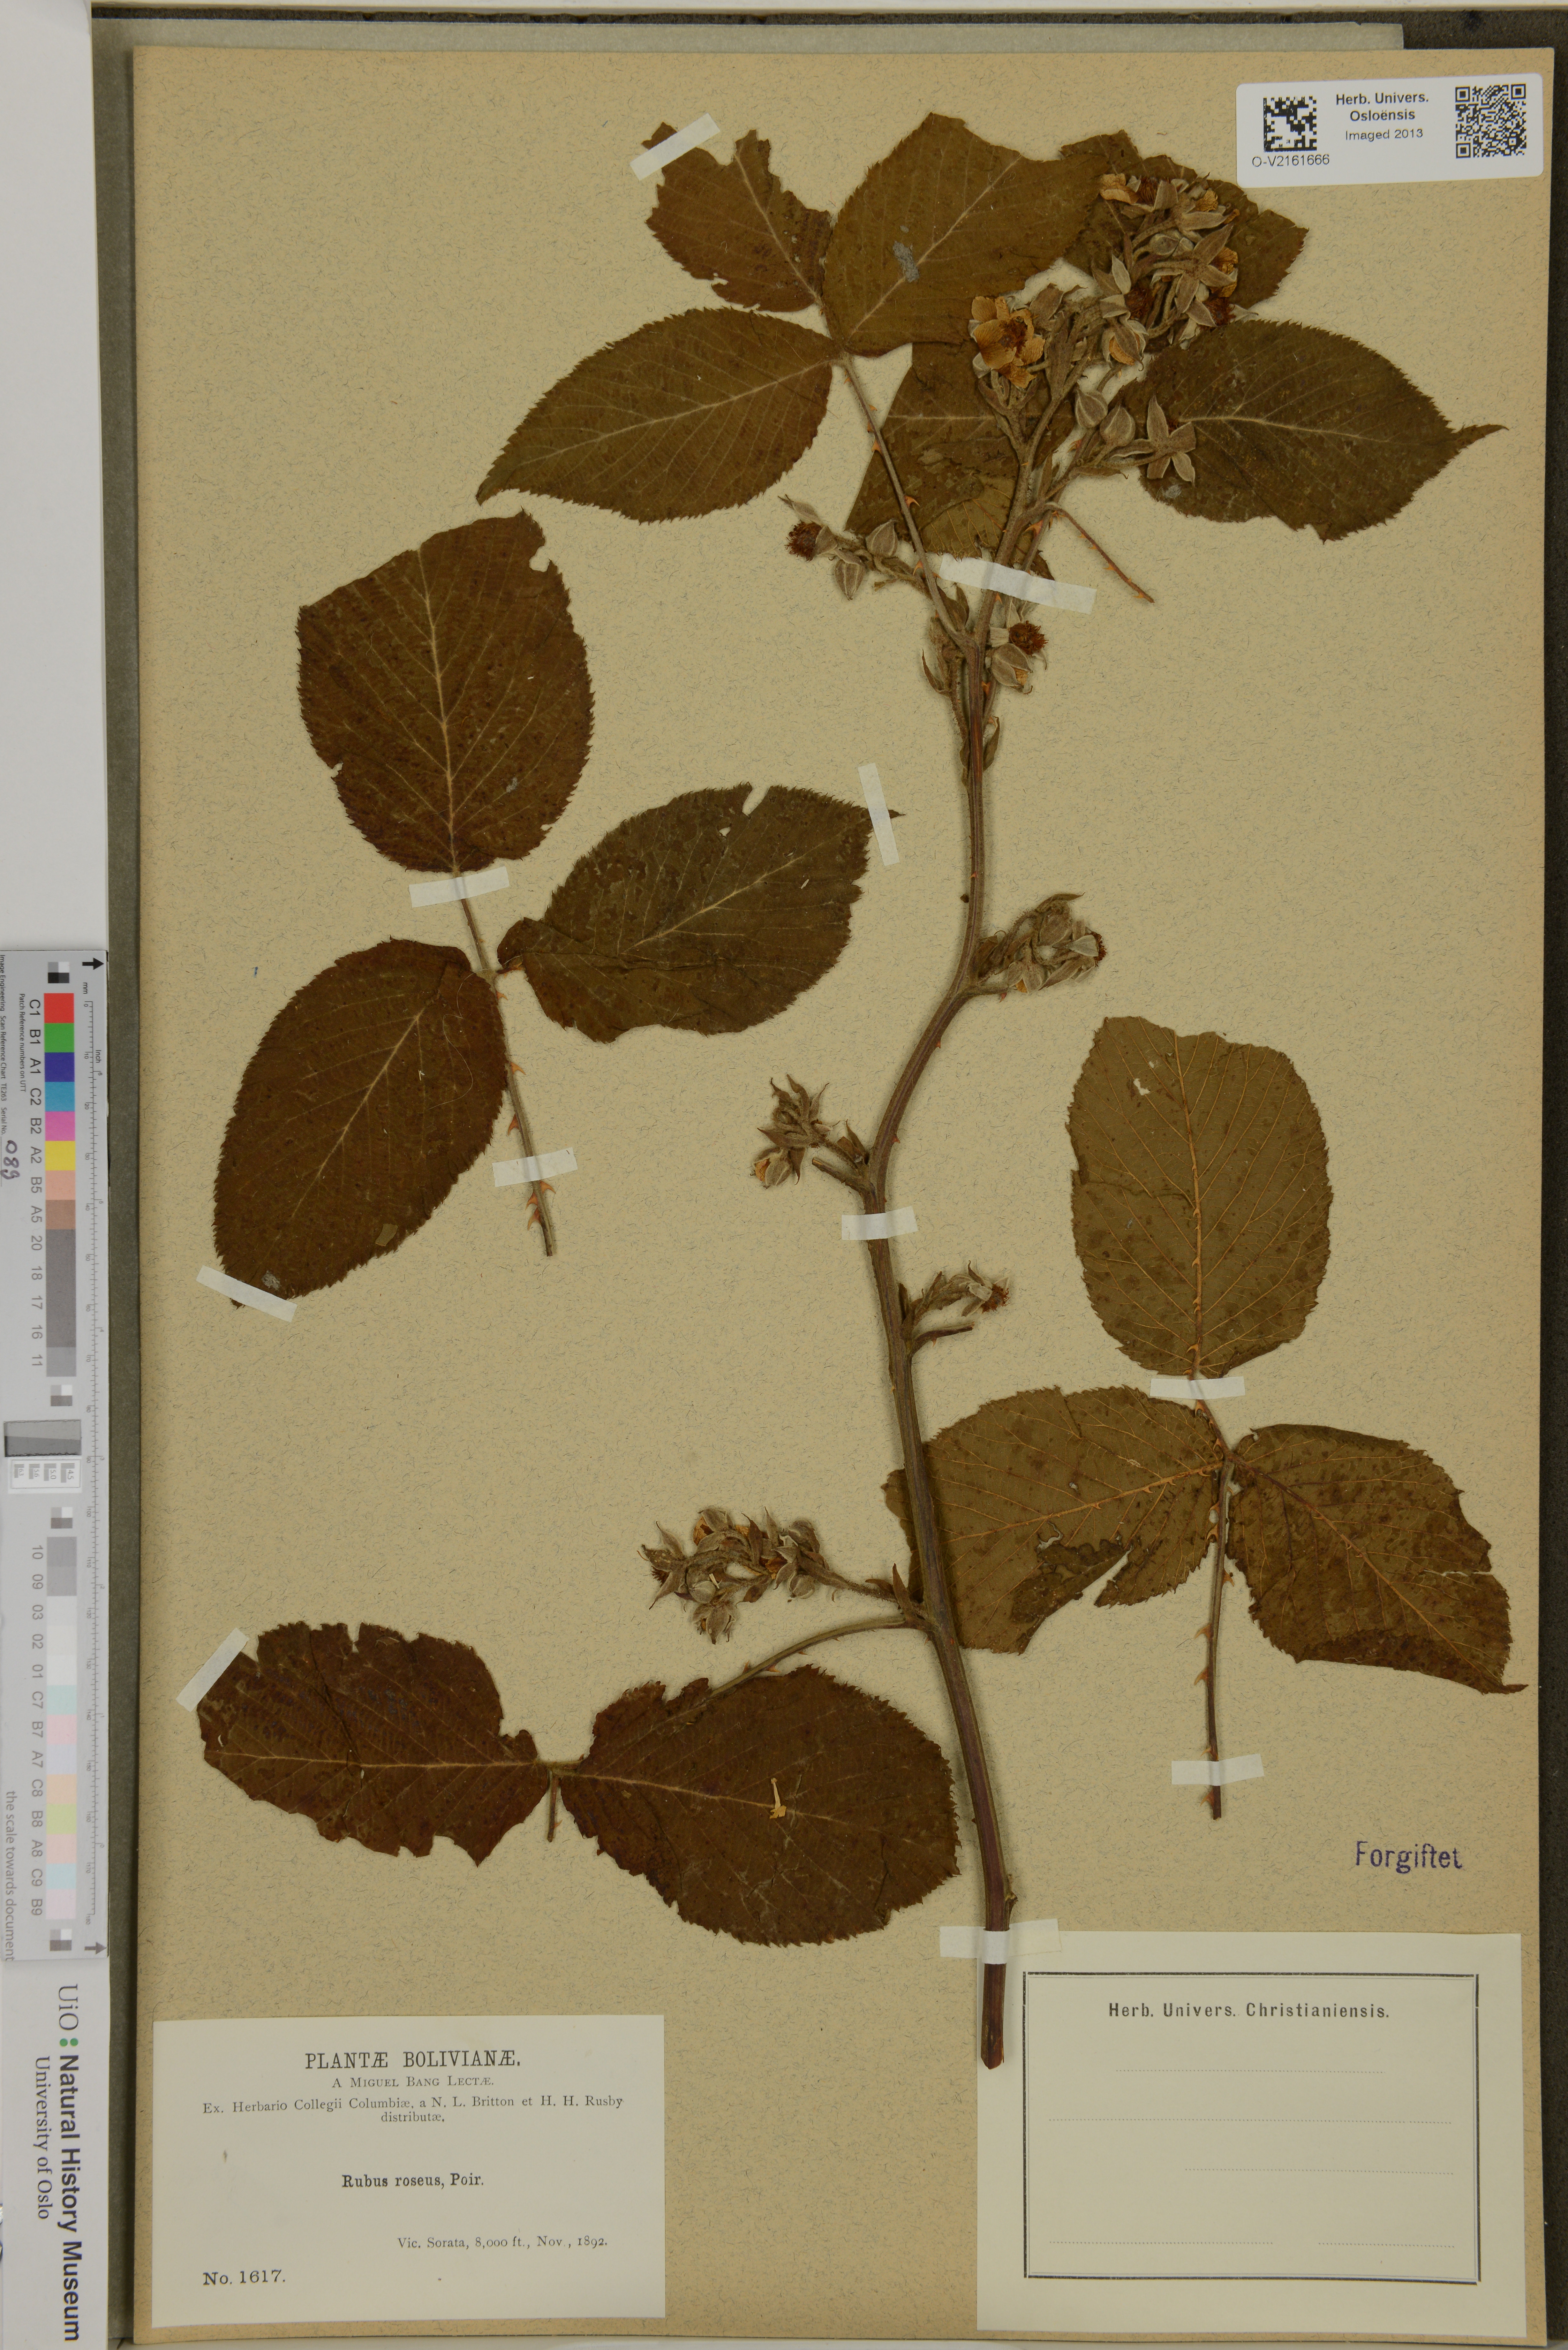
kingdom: Plantae
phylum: Tracheophyta
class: Magnoliopsida
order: Rosales
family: Rosaceae
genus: Rubus
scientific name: Rubus roseus
